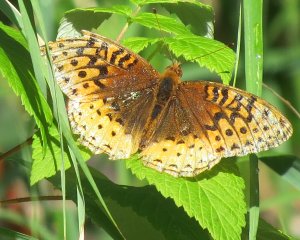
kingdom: Animalia
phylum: Arthropoda
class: Insecta
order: Lepidoptera
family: Nymphalidae
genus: Speyeria
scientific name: Speyeria cybele
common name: Great Spangled Fritillary
